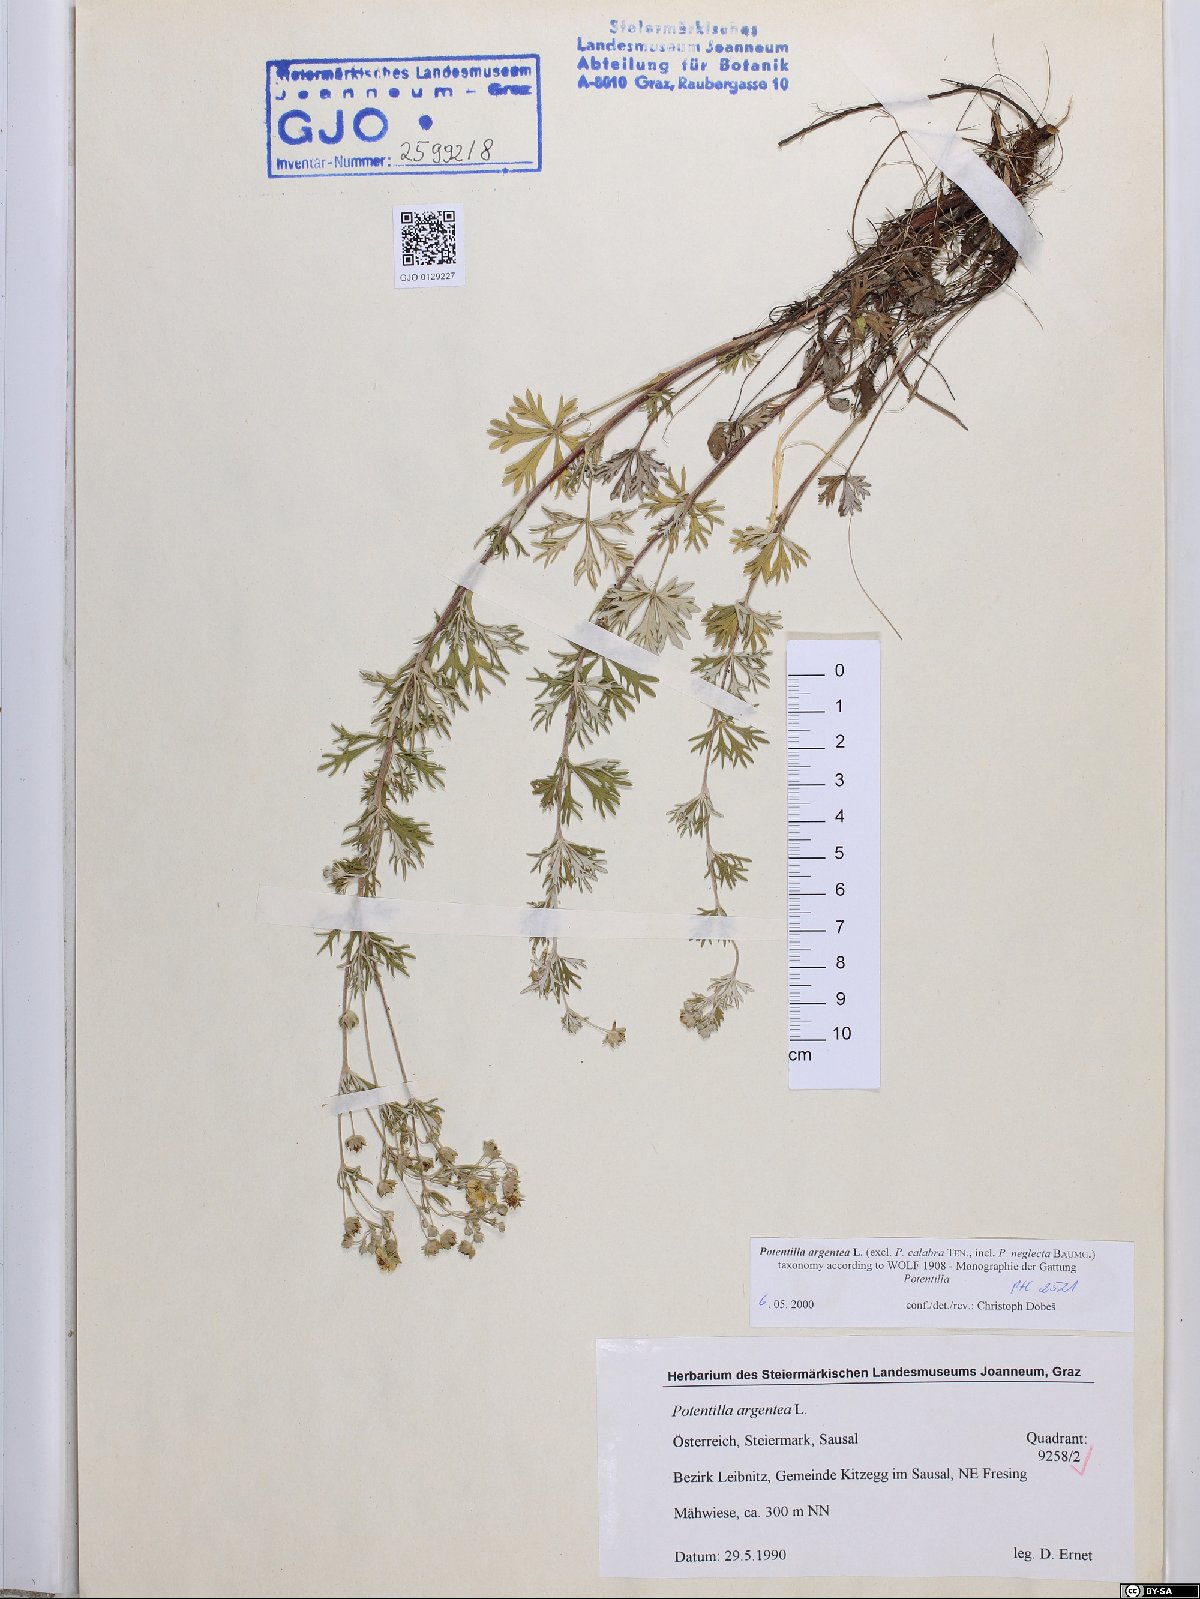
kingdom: Plantae
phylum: Tracheophyta
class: Magnoliopsida
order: Rosales
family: Rosaceae
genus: Potentilla
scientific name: Potentilla argentea
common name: Hoary cinquefoil
